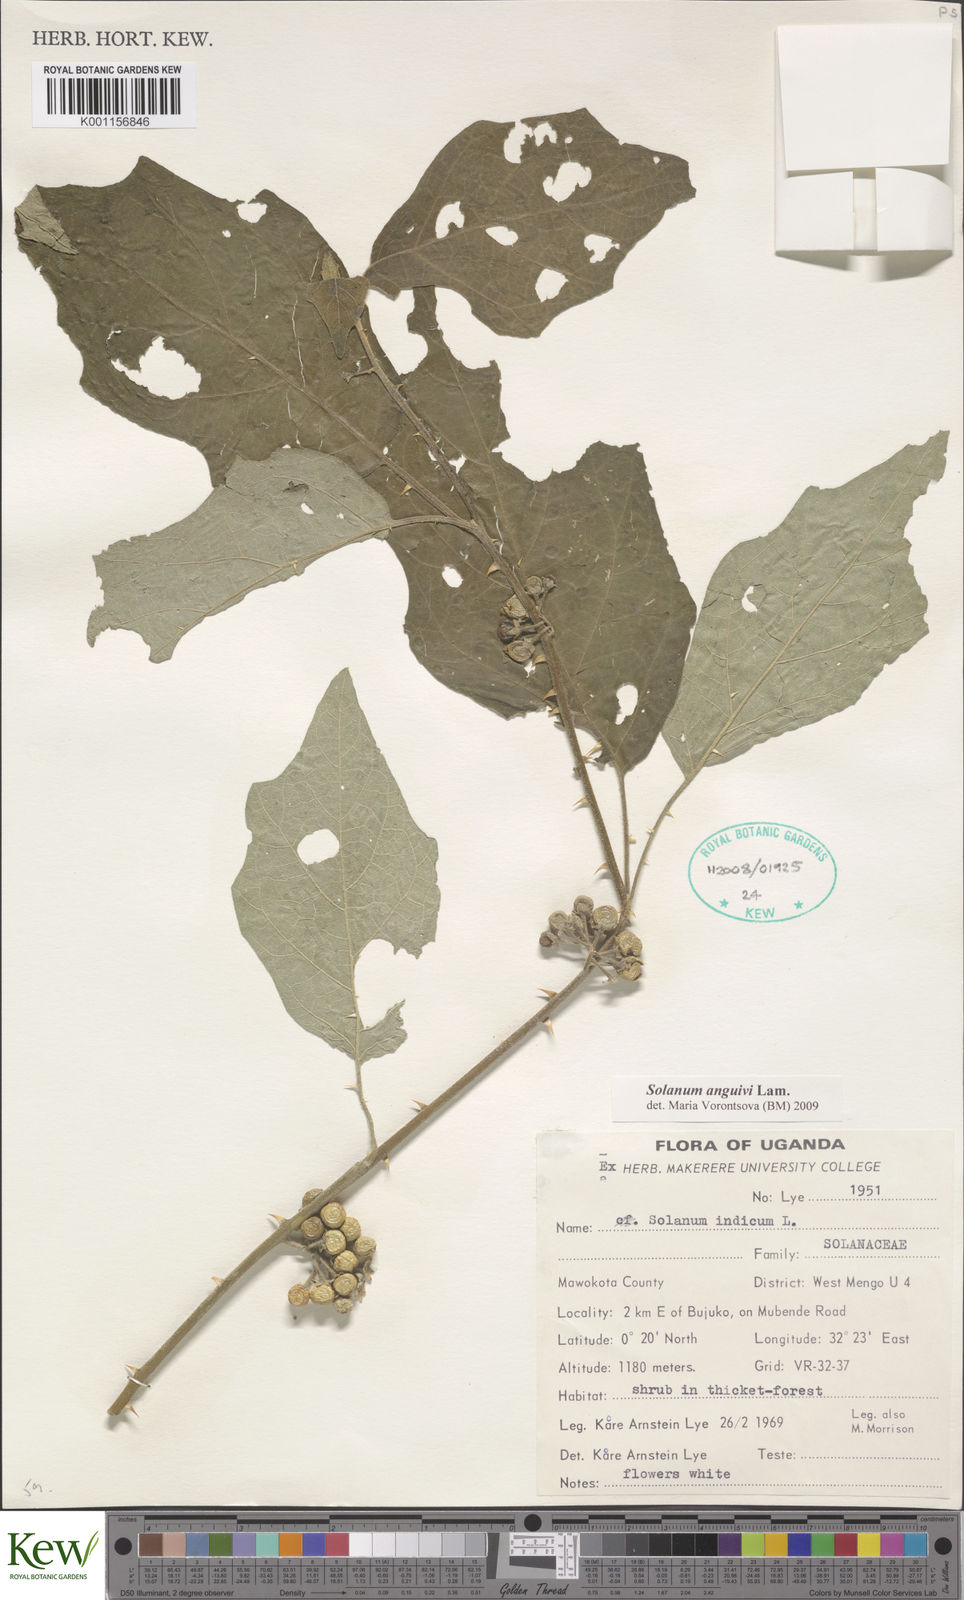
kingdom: Plantae
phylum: Tracheophyta
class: Magnoliopsida
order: Solanales
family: Solanaceae
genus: Solanum
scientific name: Solanum anguivi
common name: Forest bitterberry
